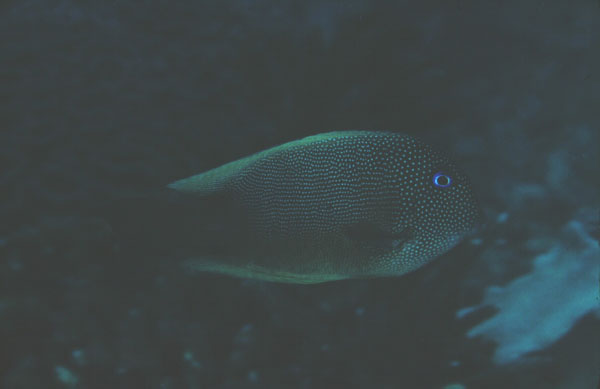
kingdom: Animalia
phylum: Chordata
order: Perciformes
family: Acanthuridae
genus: Ctenochaetus
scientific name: Ctenochaetus binotatus
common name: Two-spot bristletooth
